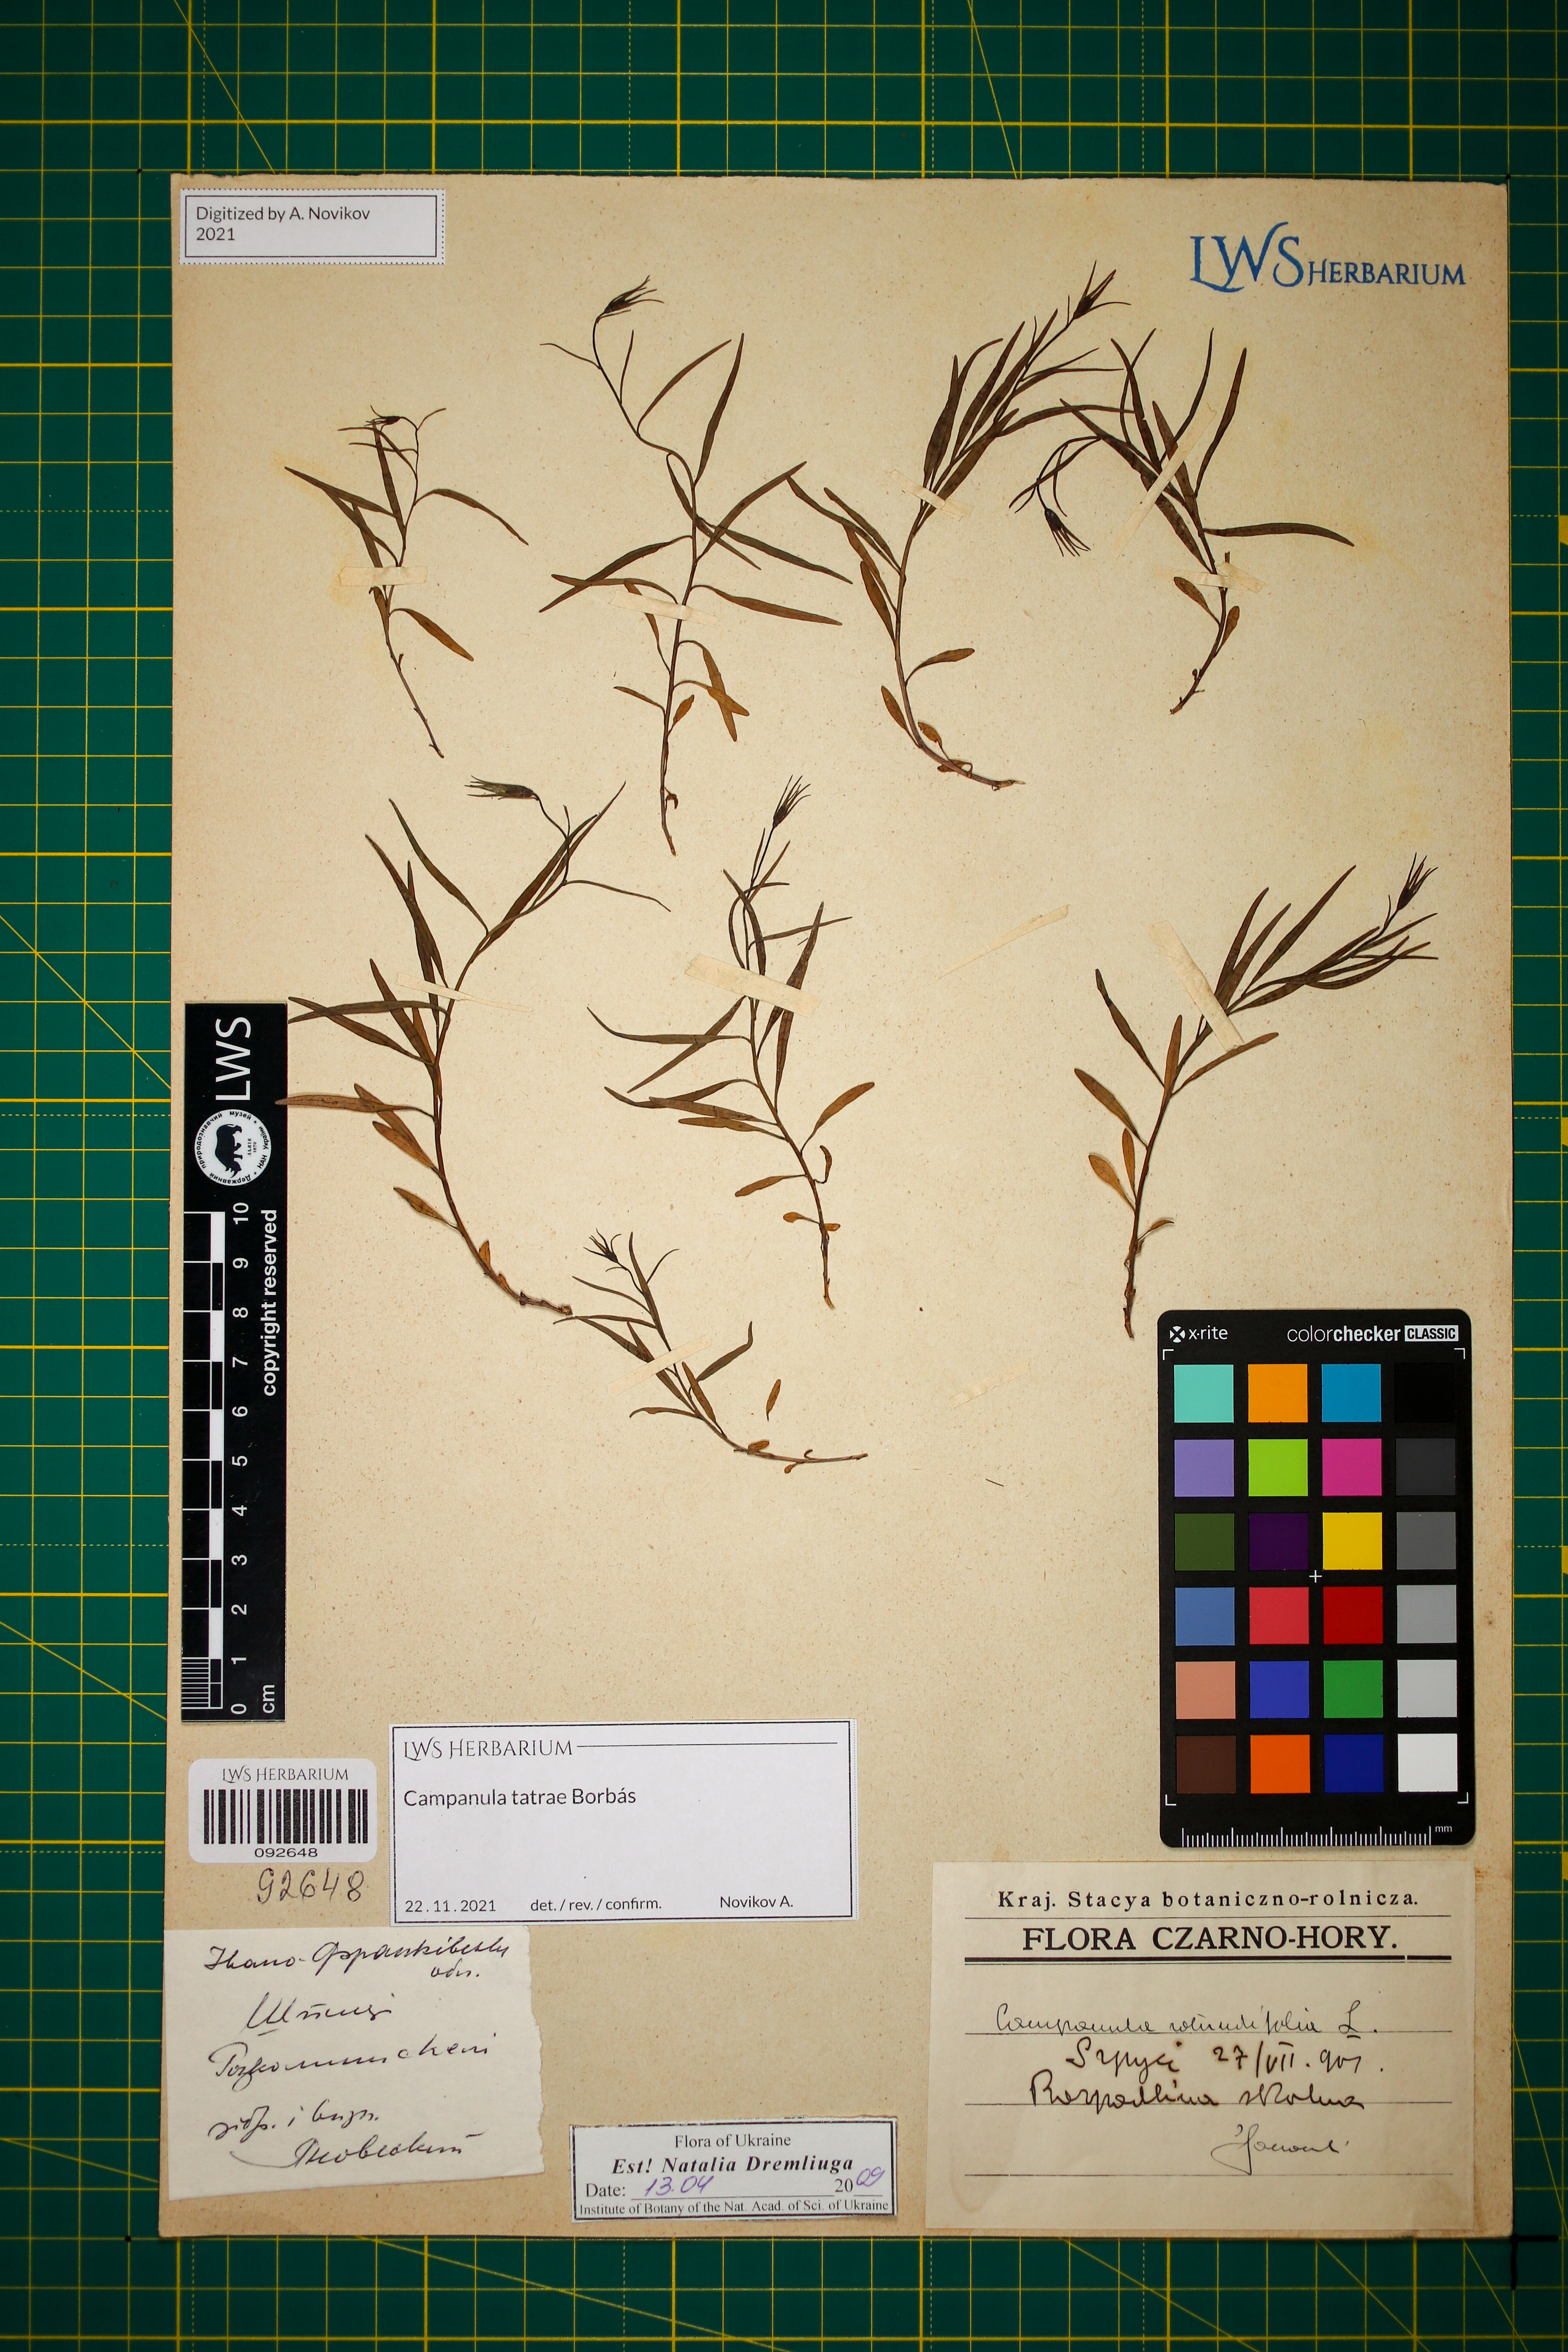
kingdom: Plantae
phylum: Tracheophyta
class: Magnoliopsida
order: Asterales
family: Campanulaceae
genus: Campanula
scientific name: Campanula tatrae
